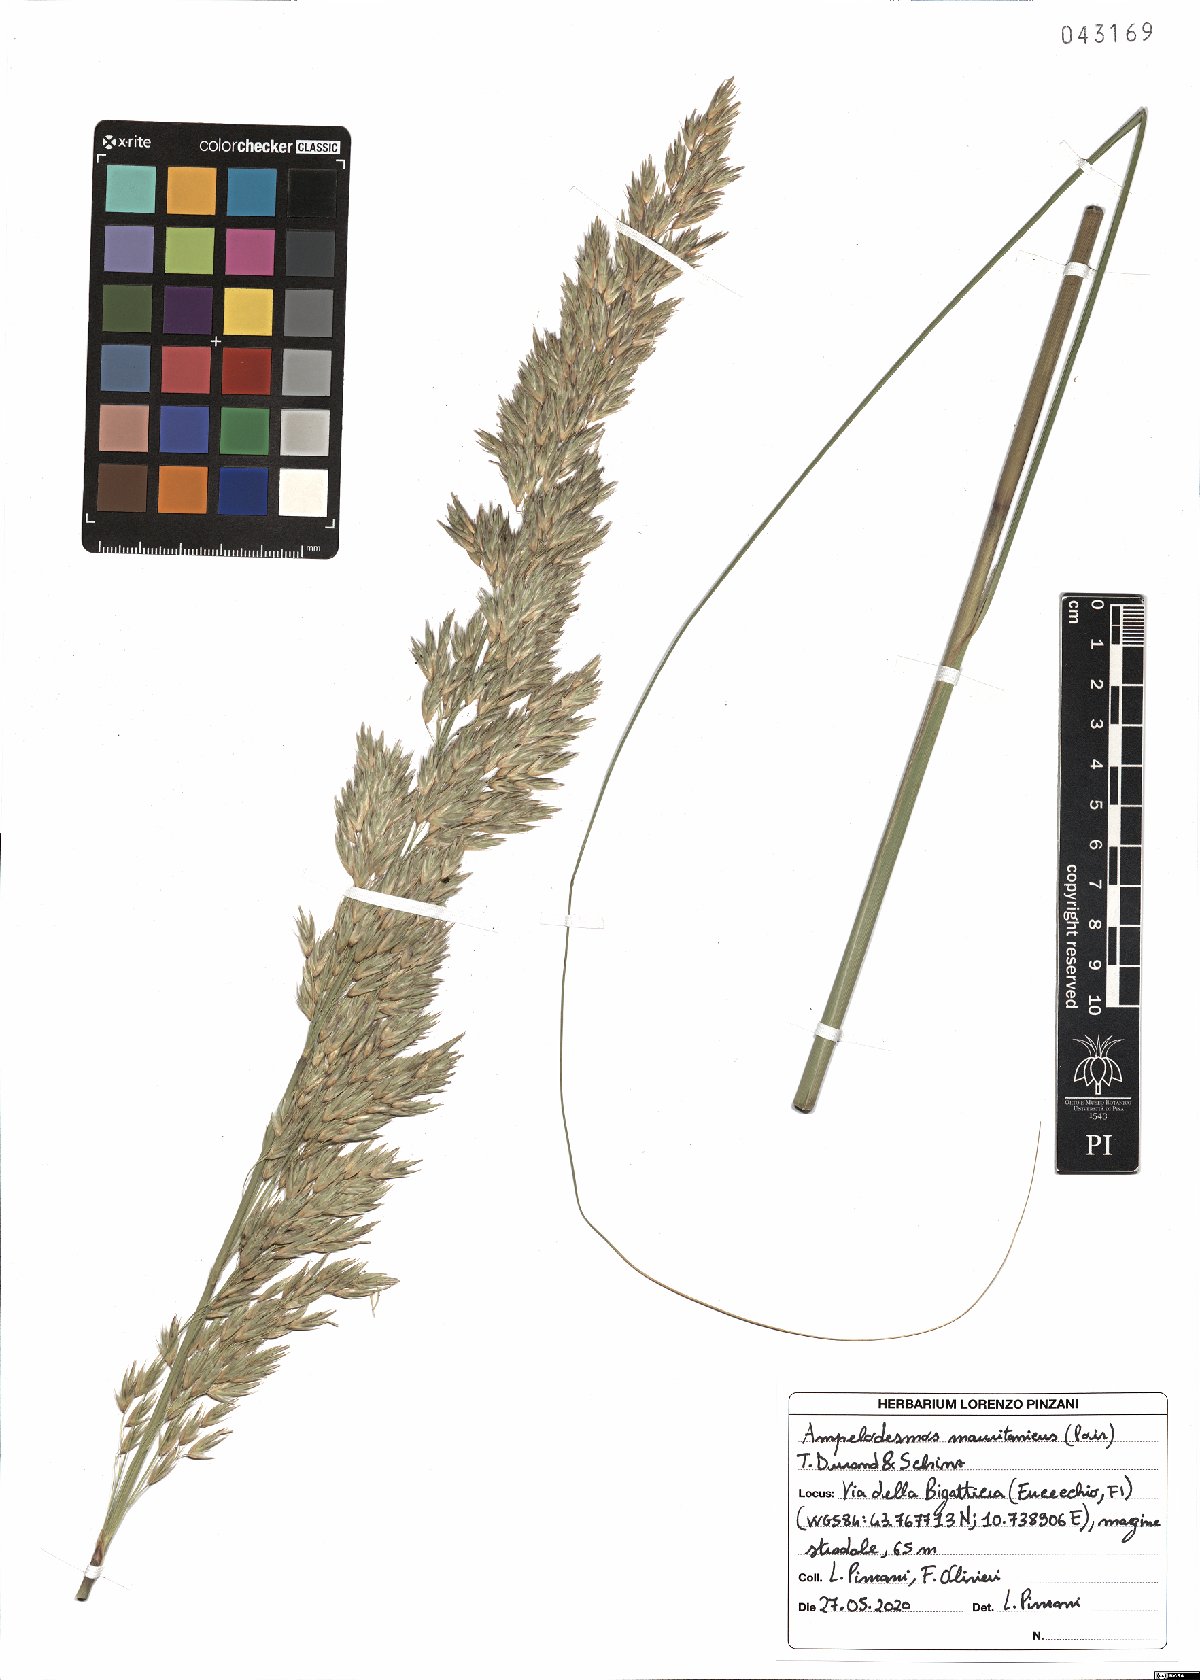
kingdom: Plantae
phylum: Tracheophyta
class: Liliopsida
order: Poales
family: Poaceae
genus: Ampelodesmos
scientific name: Ampelodesmos mauritanicus
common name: Mauritanian grass
